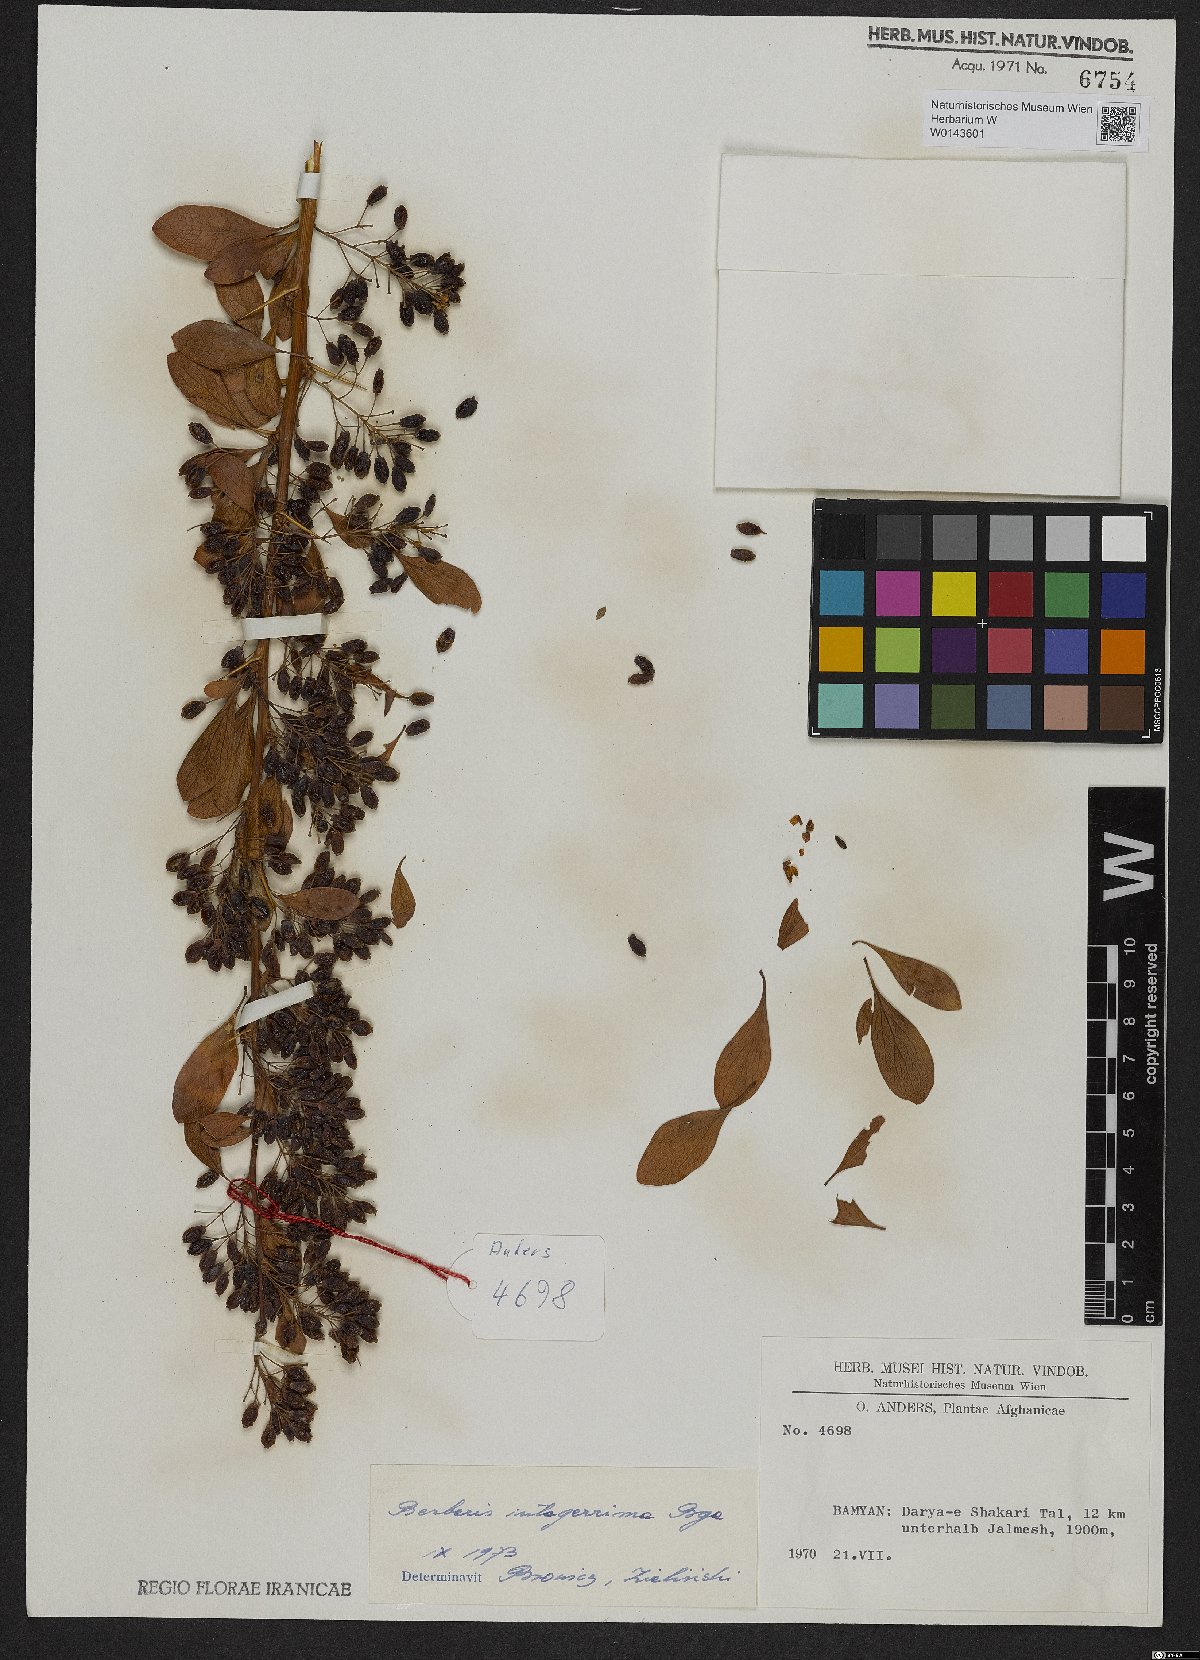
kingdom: Plantae
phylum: Tracheophyta
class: Magnoliopsida
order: Ranunculales
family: Berberidaceae
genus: Berberis
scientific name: Berberis integerrima
